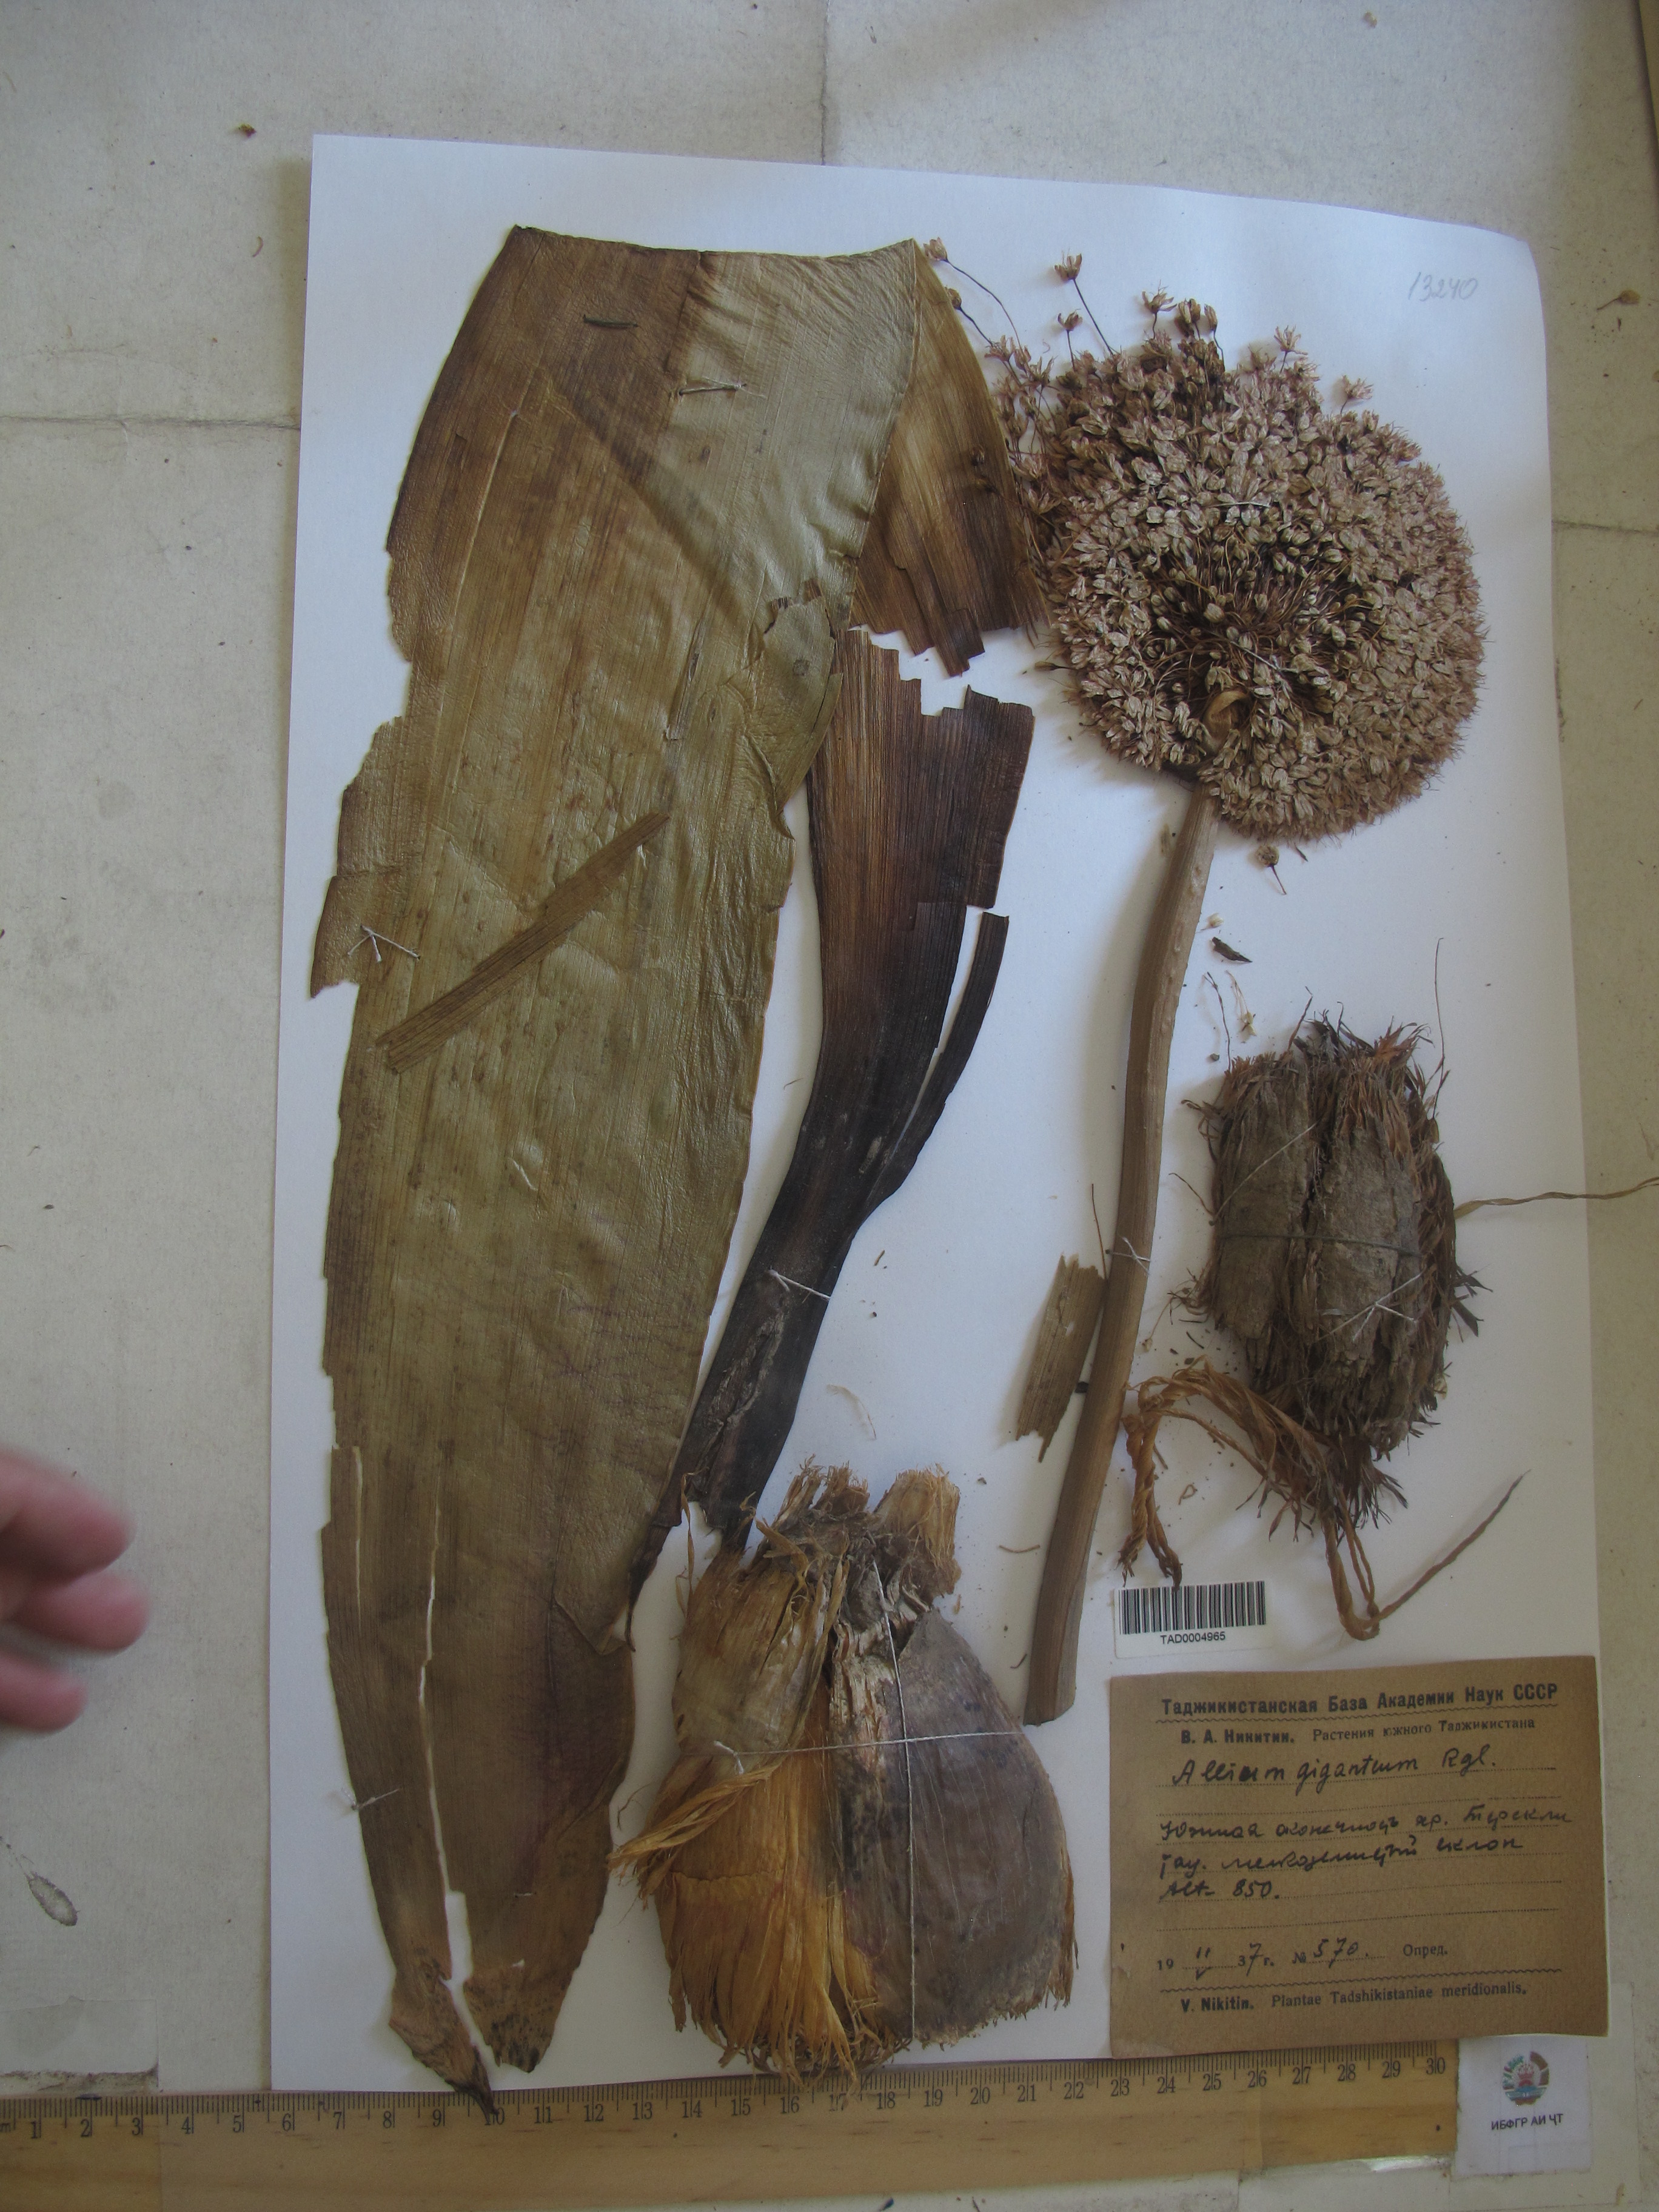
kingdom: Plantae
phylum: Tracheophyta
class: Liliopsida
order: Asparagales
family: Amaryllidaceae
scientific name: Amaryllidaceae
